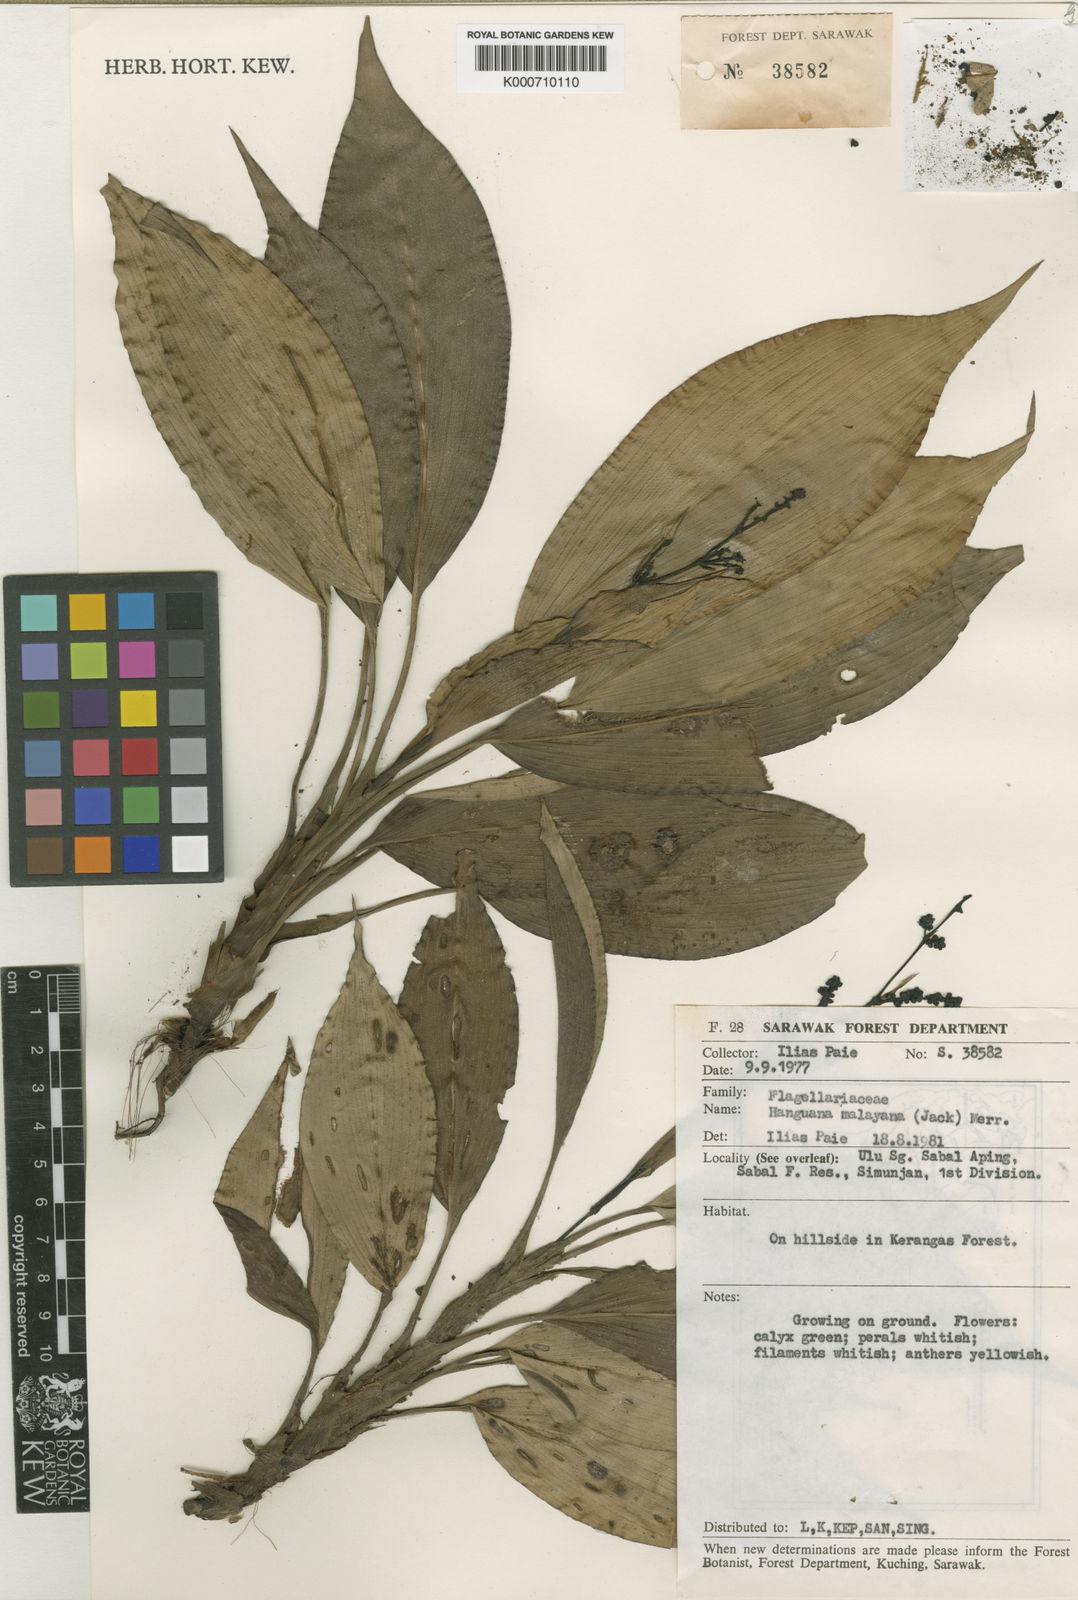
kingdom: Plantae
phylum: Tracheophyta
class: Liliopsida
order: Commelinales
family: Hanguanaceae
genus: Hanguana
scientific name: Hanguana malayana
